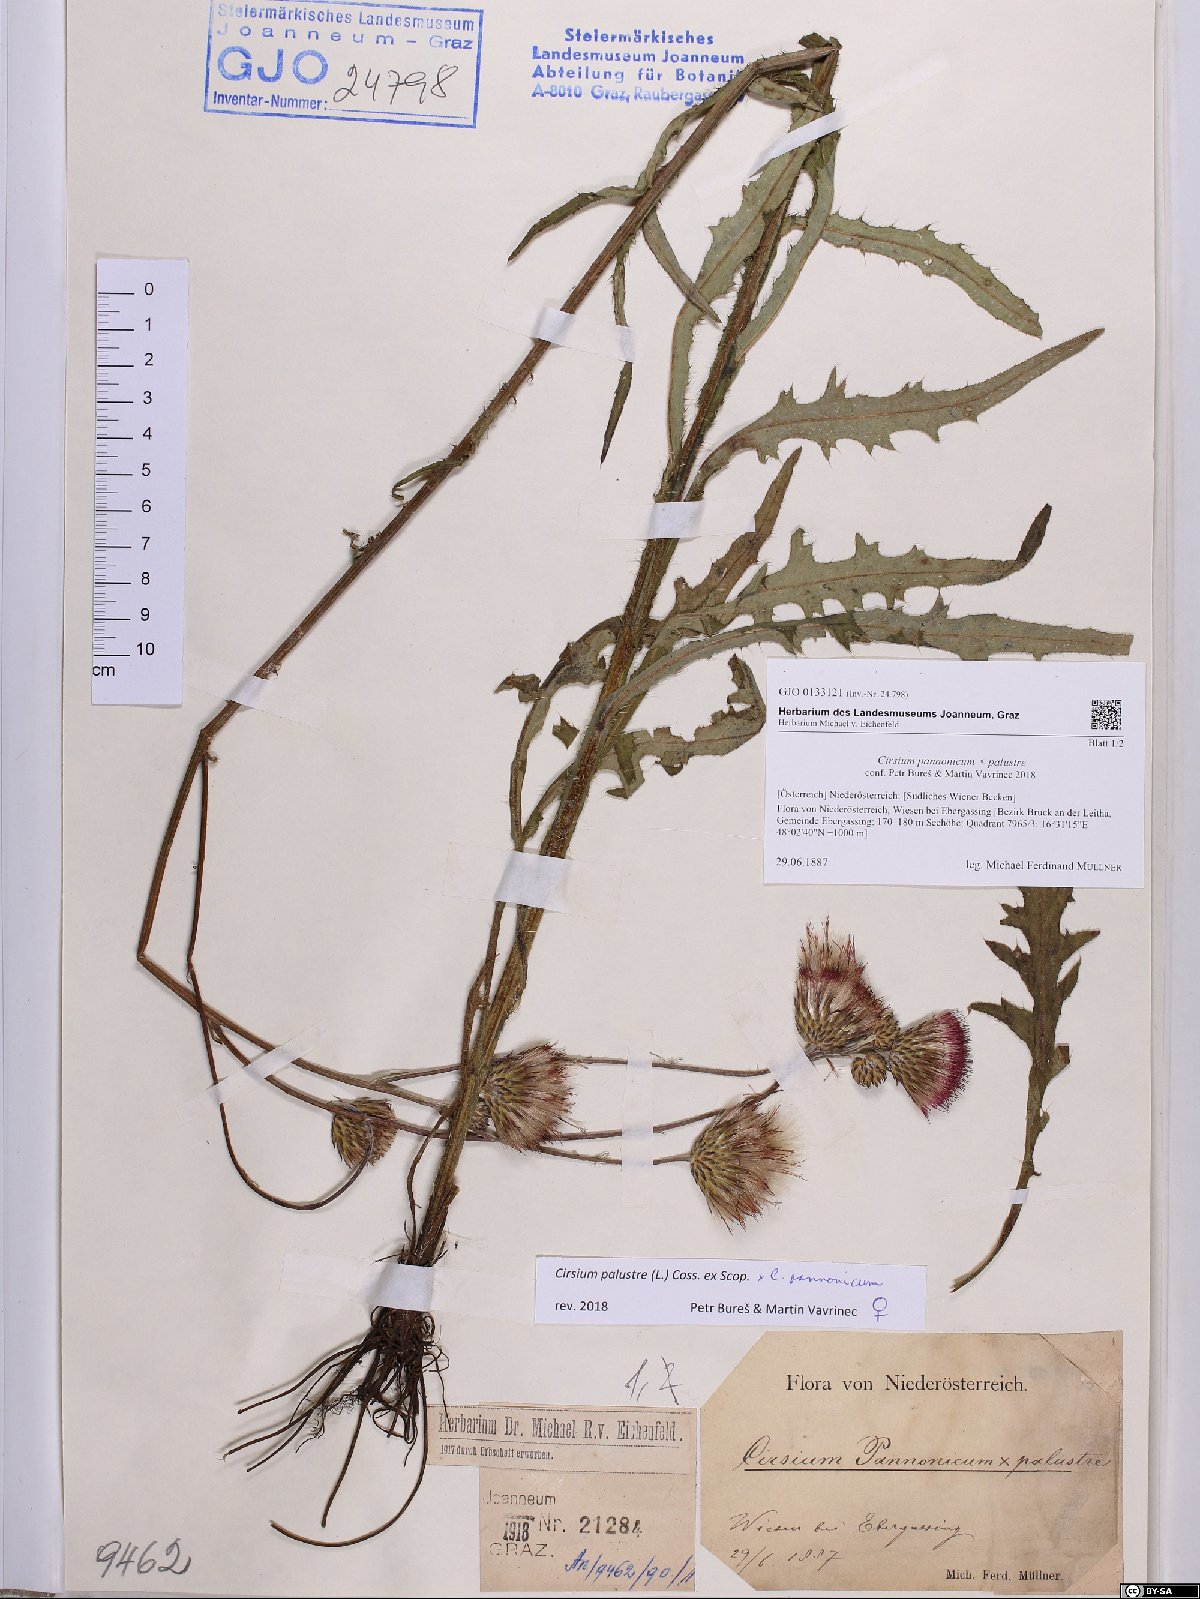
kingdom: Plantae
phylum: Tracheophyta
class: Magnoliopsida
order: Asterales
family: Asteraceae
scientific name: Asteraceae
